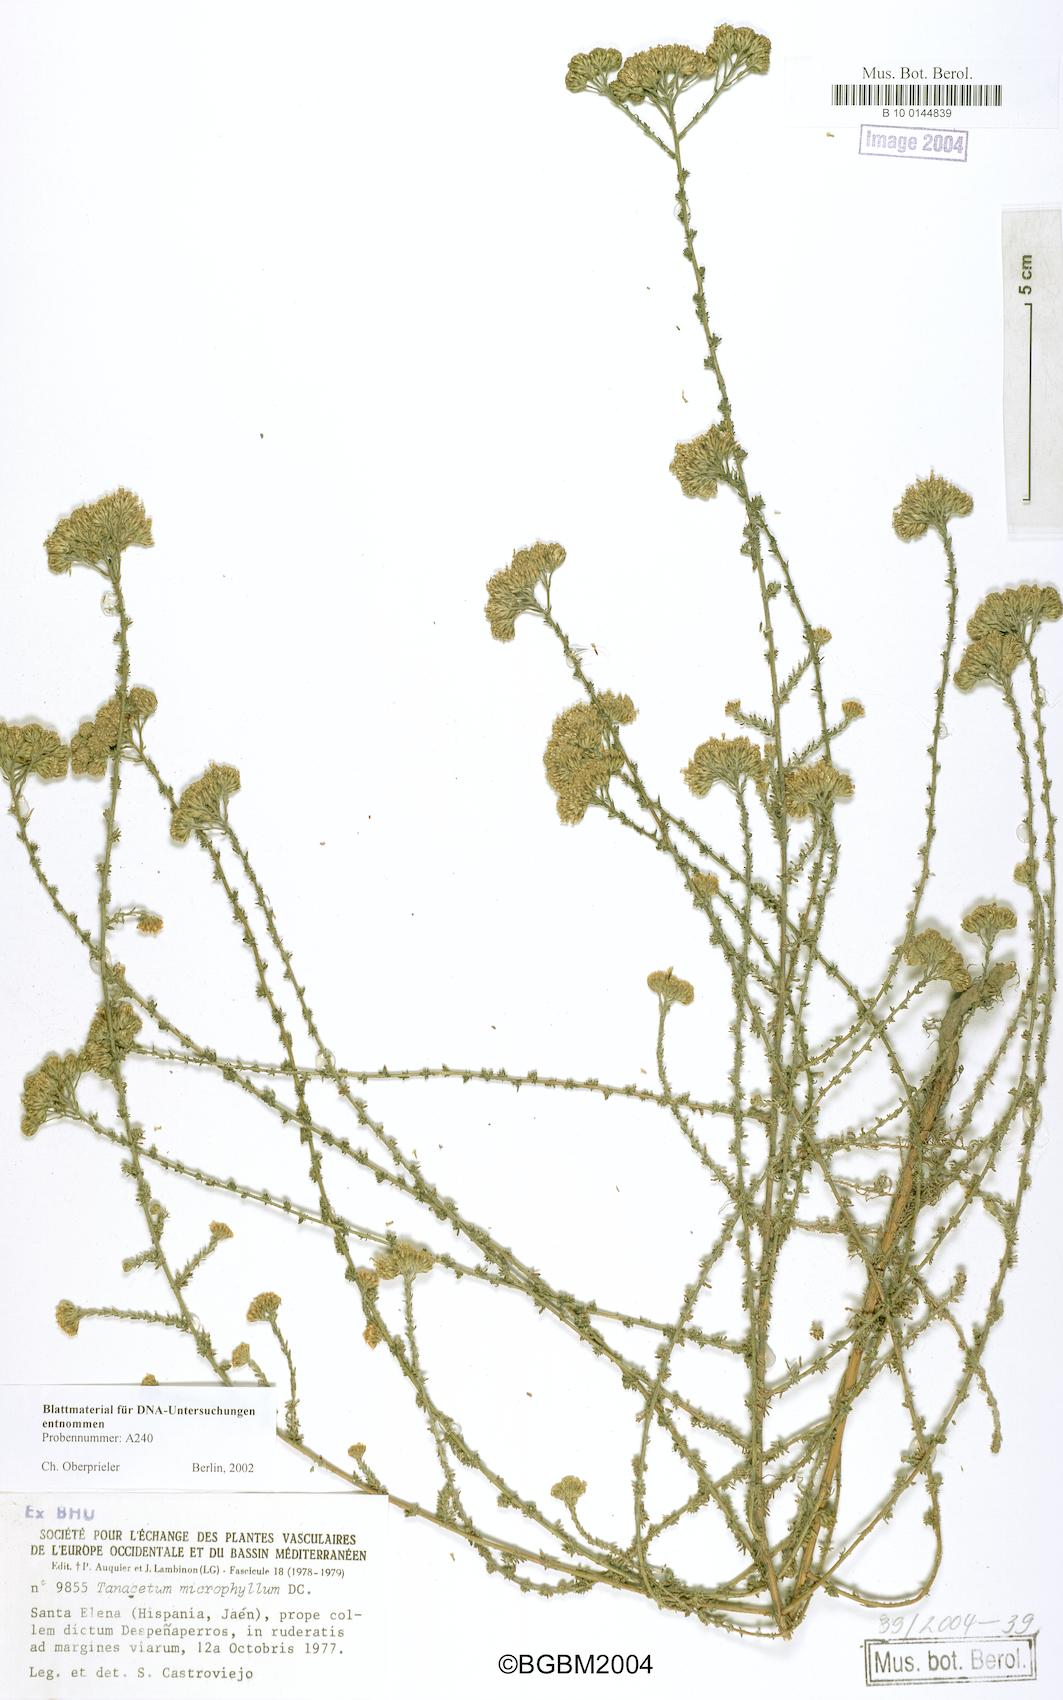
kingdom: Plantae
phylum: Tracheophyta
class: Magnoliopsida
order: Asterales
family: Asteraceae
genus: Vogtia
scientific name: Vogtia microphylla
